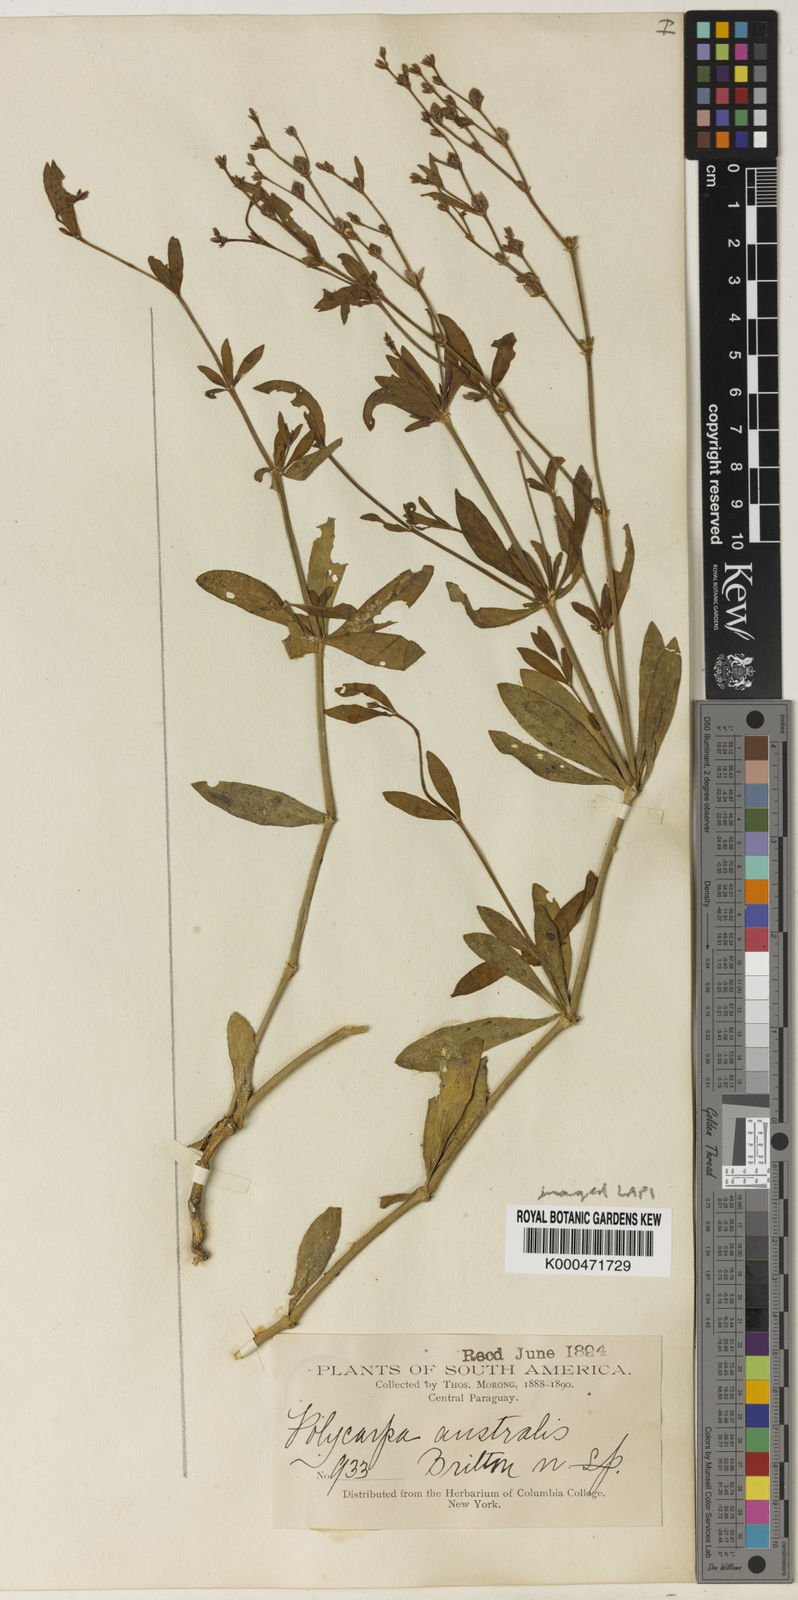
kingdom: Plantae
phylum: Tracheophyta
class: Magnoliopsida
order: Caryophyllales
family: Caryophyllaceae
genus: Polycarpon
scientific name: Polycarpon
